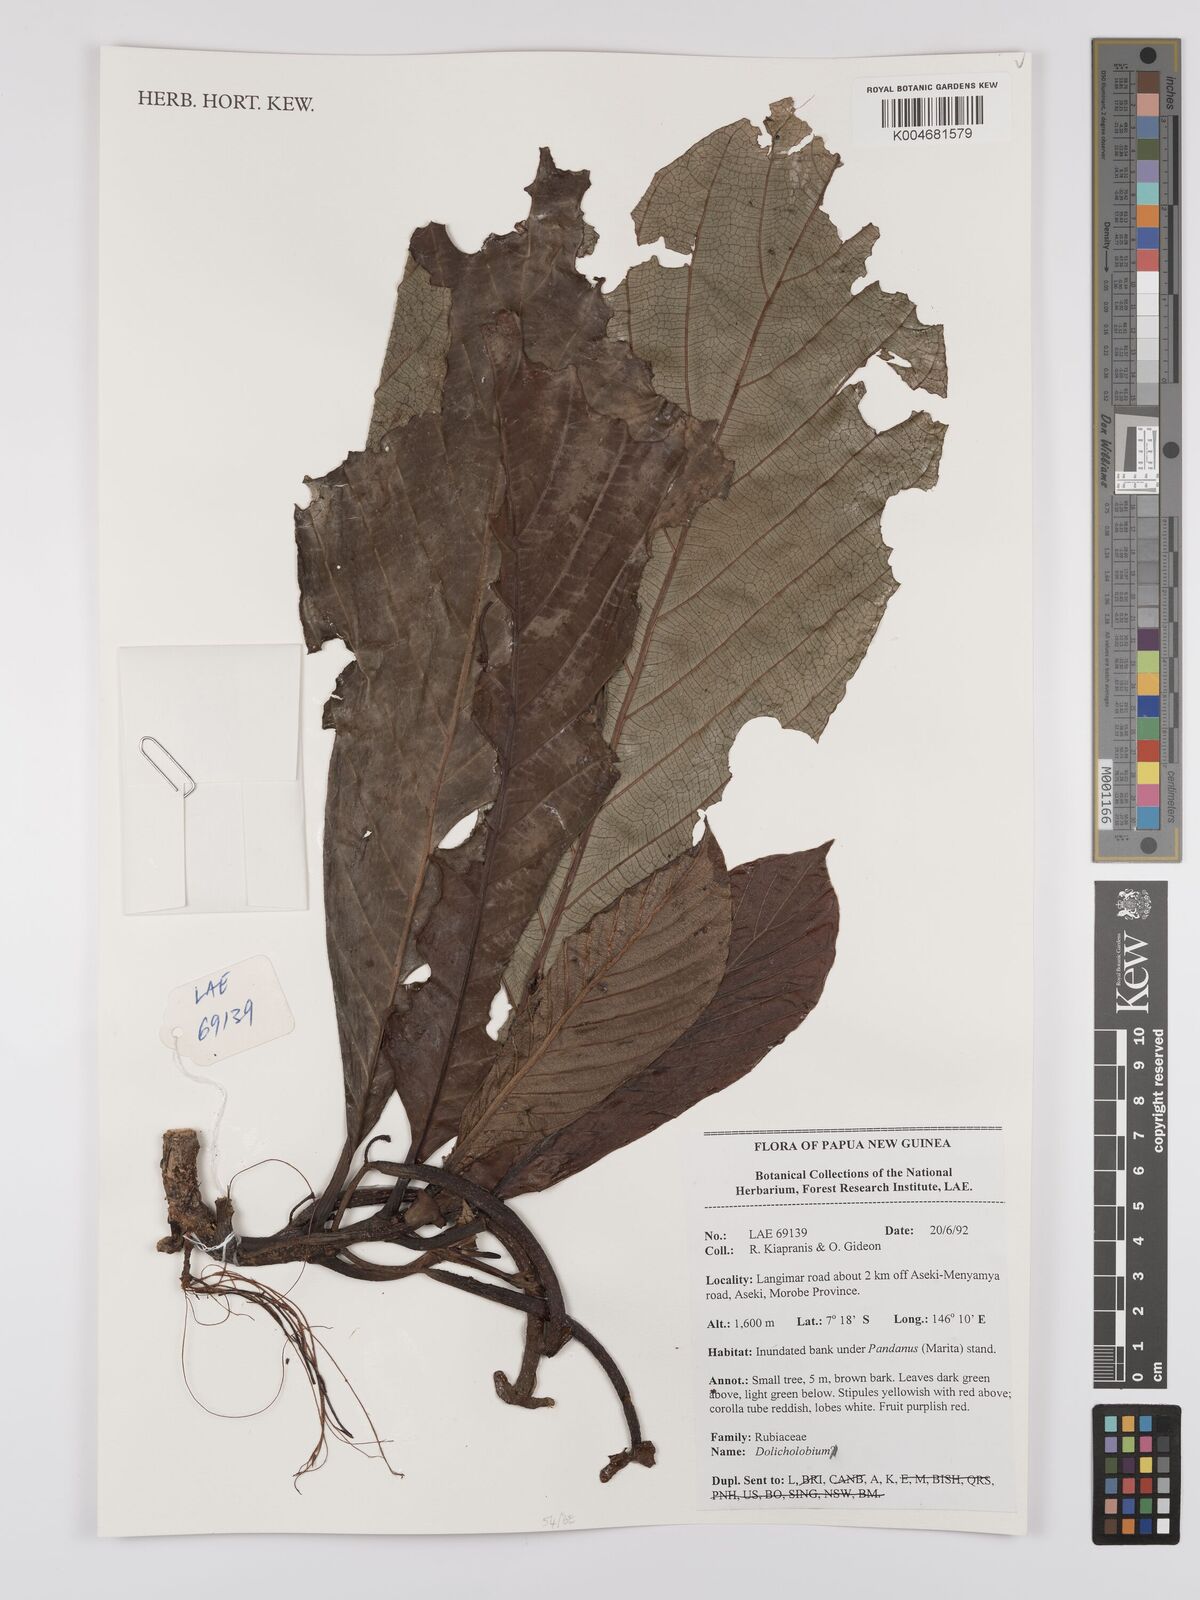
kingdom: Plantae
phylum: Tracheophyta
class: Magnoliopsida
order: Gentianales
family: Rubiaceae
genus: Dolicholobium
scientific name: Dolicholobium
